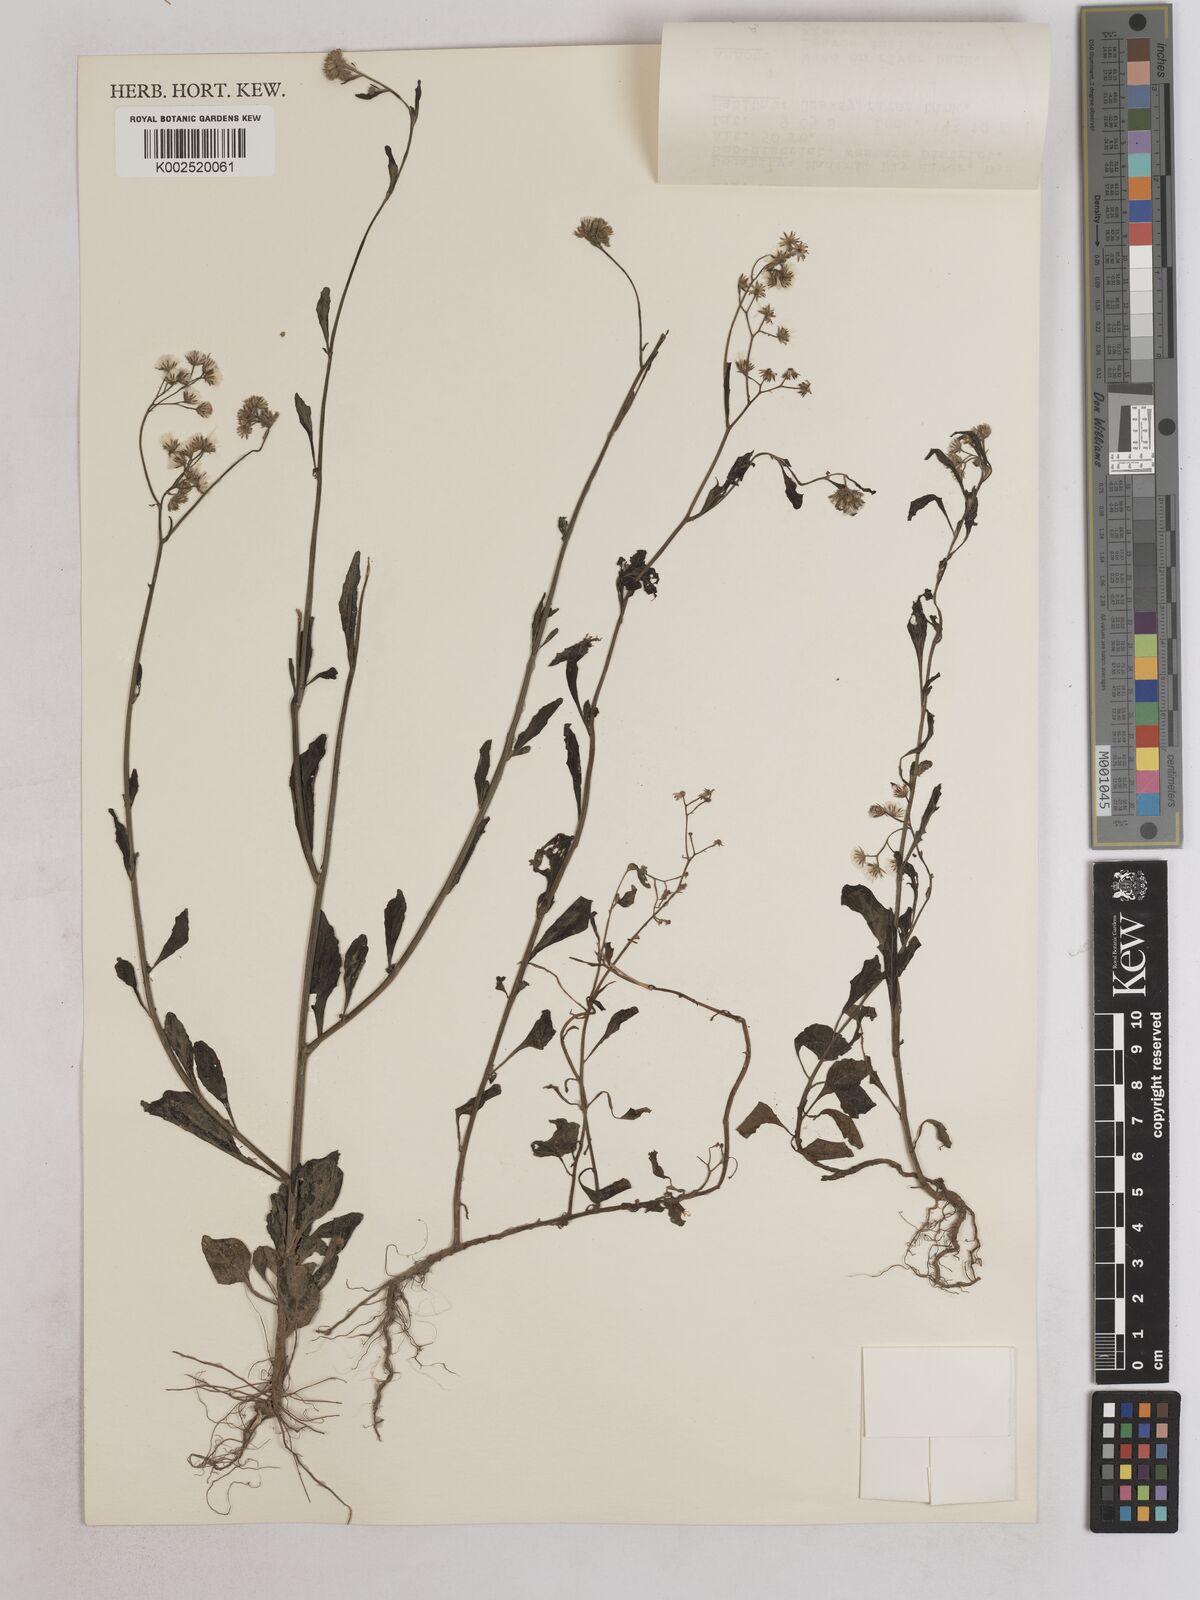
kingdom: Plantae
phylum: Tracheophyta
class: Magnoliopsida
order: Asterales
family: Asteraceae
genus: Cyanthillium
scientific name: Cyanthillium cinereum
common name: Little ironweed
